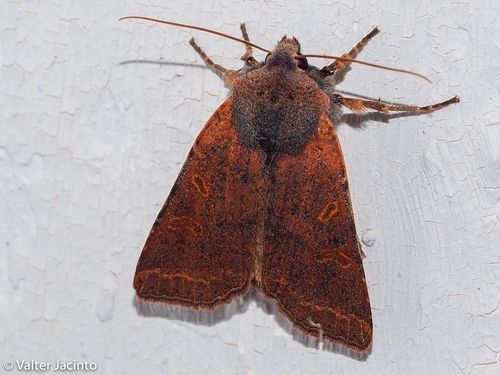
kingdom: Animalia
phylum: Arthropoda
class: Insecta
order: Lepidoptera
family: Noctuidae
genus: Agrochola
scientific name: Agrochola lychnidis
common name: Beaded chestnut
